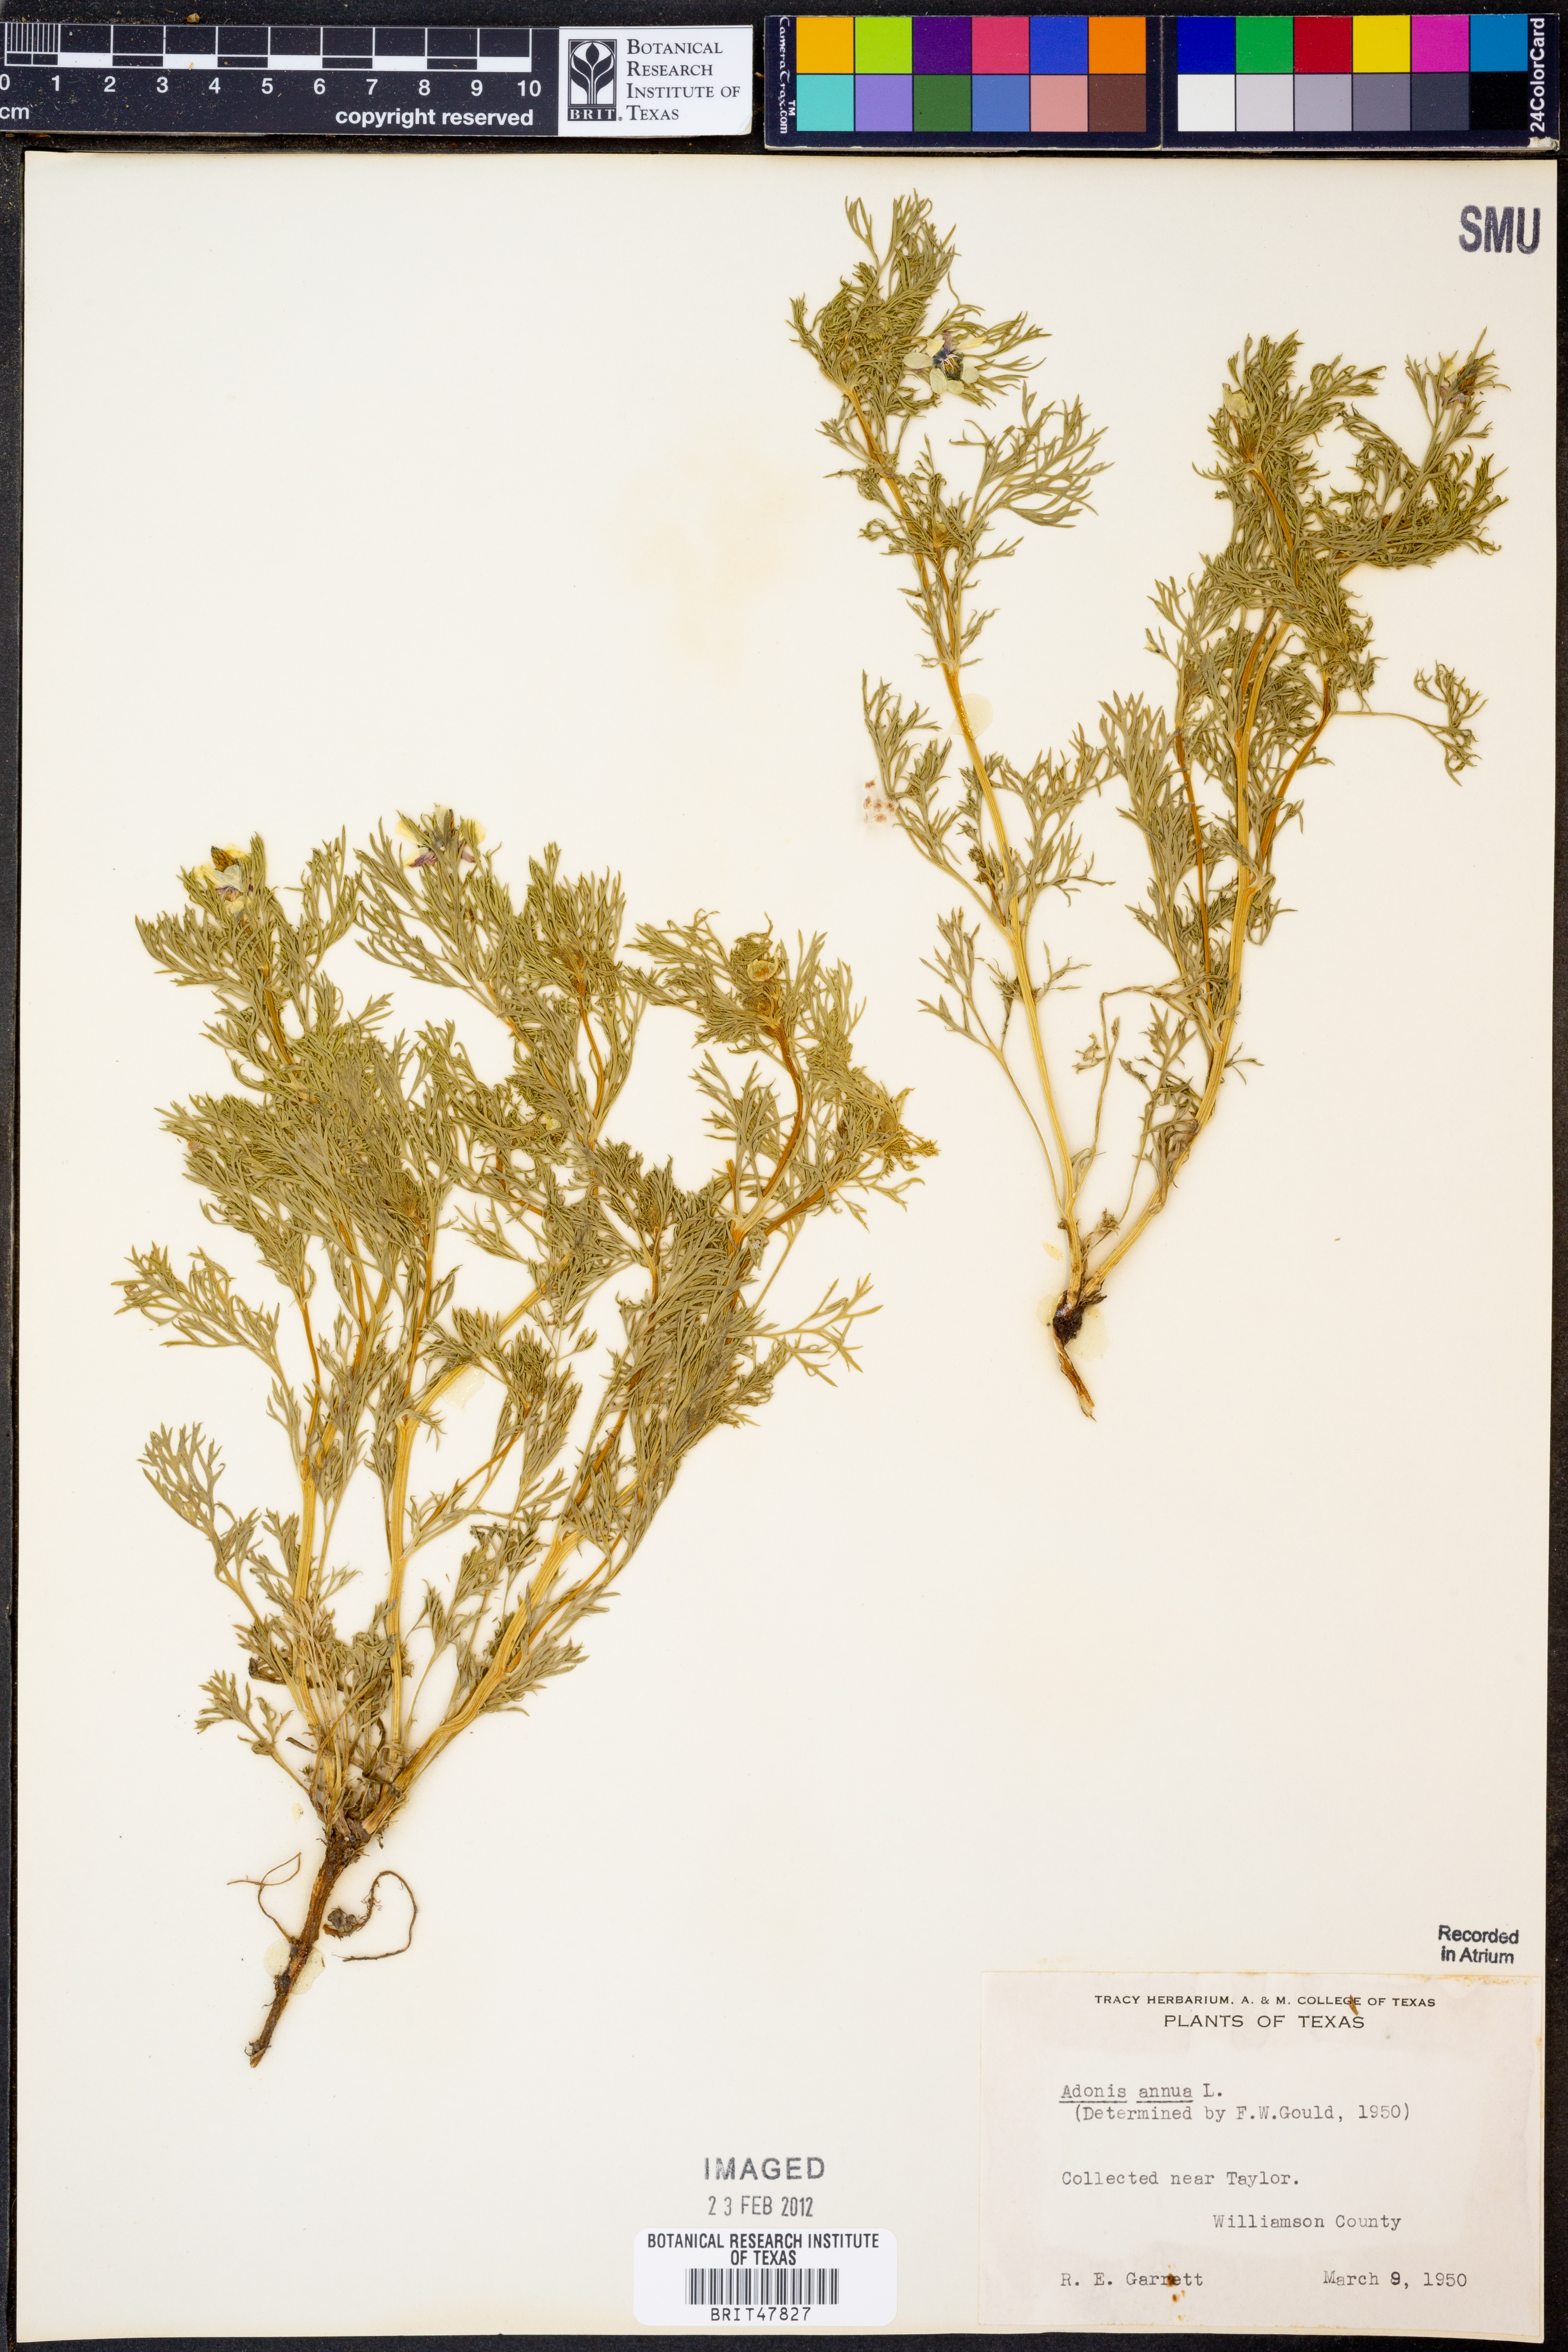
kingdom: Plantae
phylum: Tracheophyta
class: Magnoliopsida
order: Ranunculales
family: Ranunculaceae
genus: Adonis
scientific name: Adonis annua
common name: Pheasant's-eye
